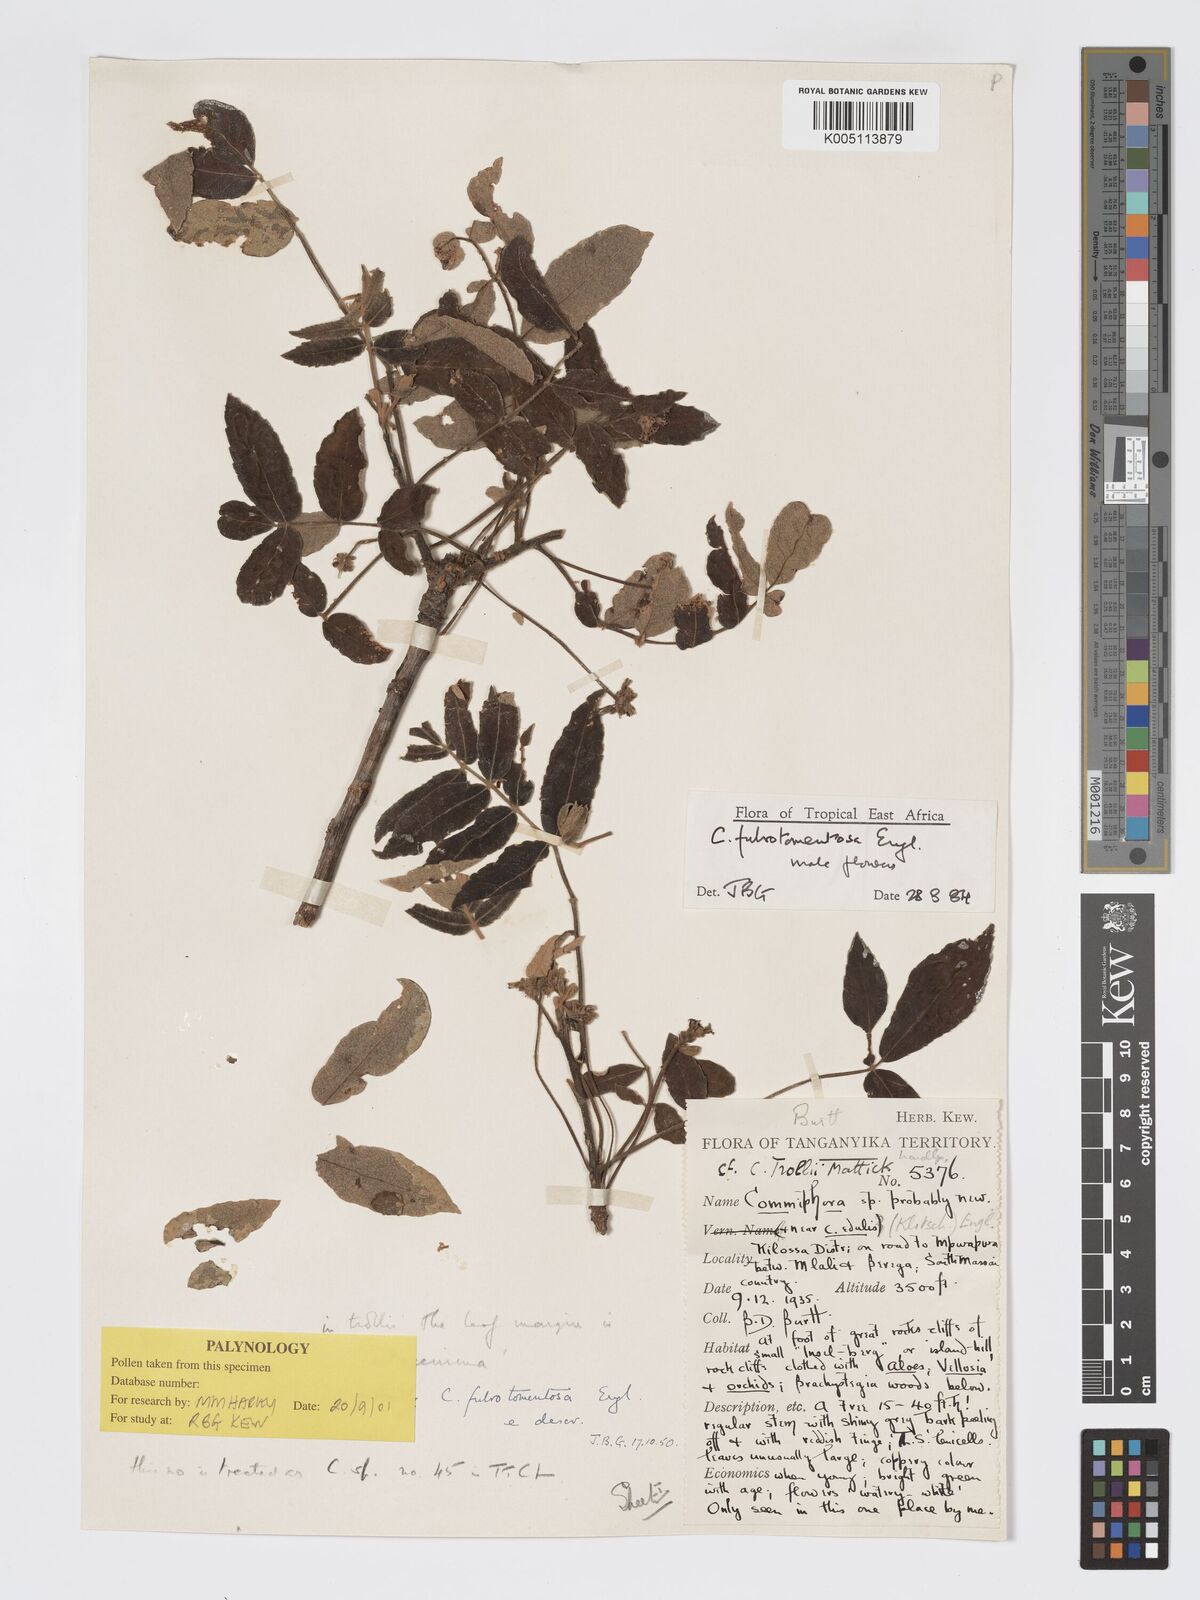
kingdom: Plantae
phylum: Tracheophyta
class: Magnoliopsida
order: Sapindales
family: Burseraceae
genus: Commiphora
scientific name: Commiphora fulvotomentosa
